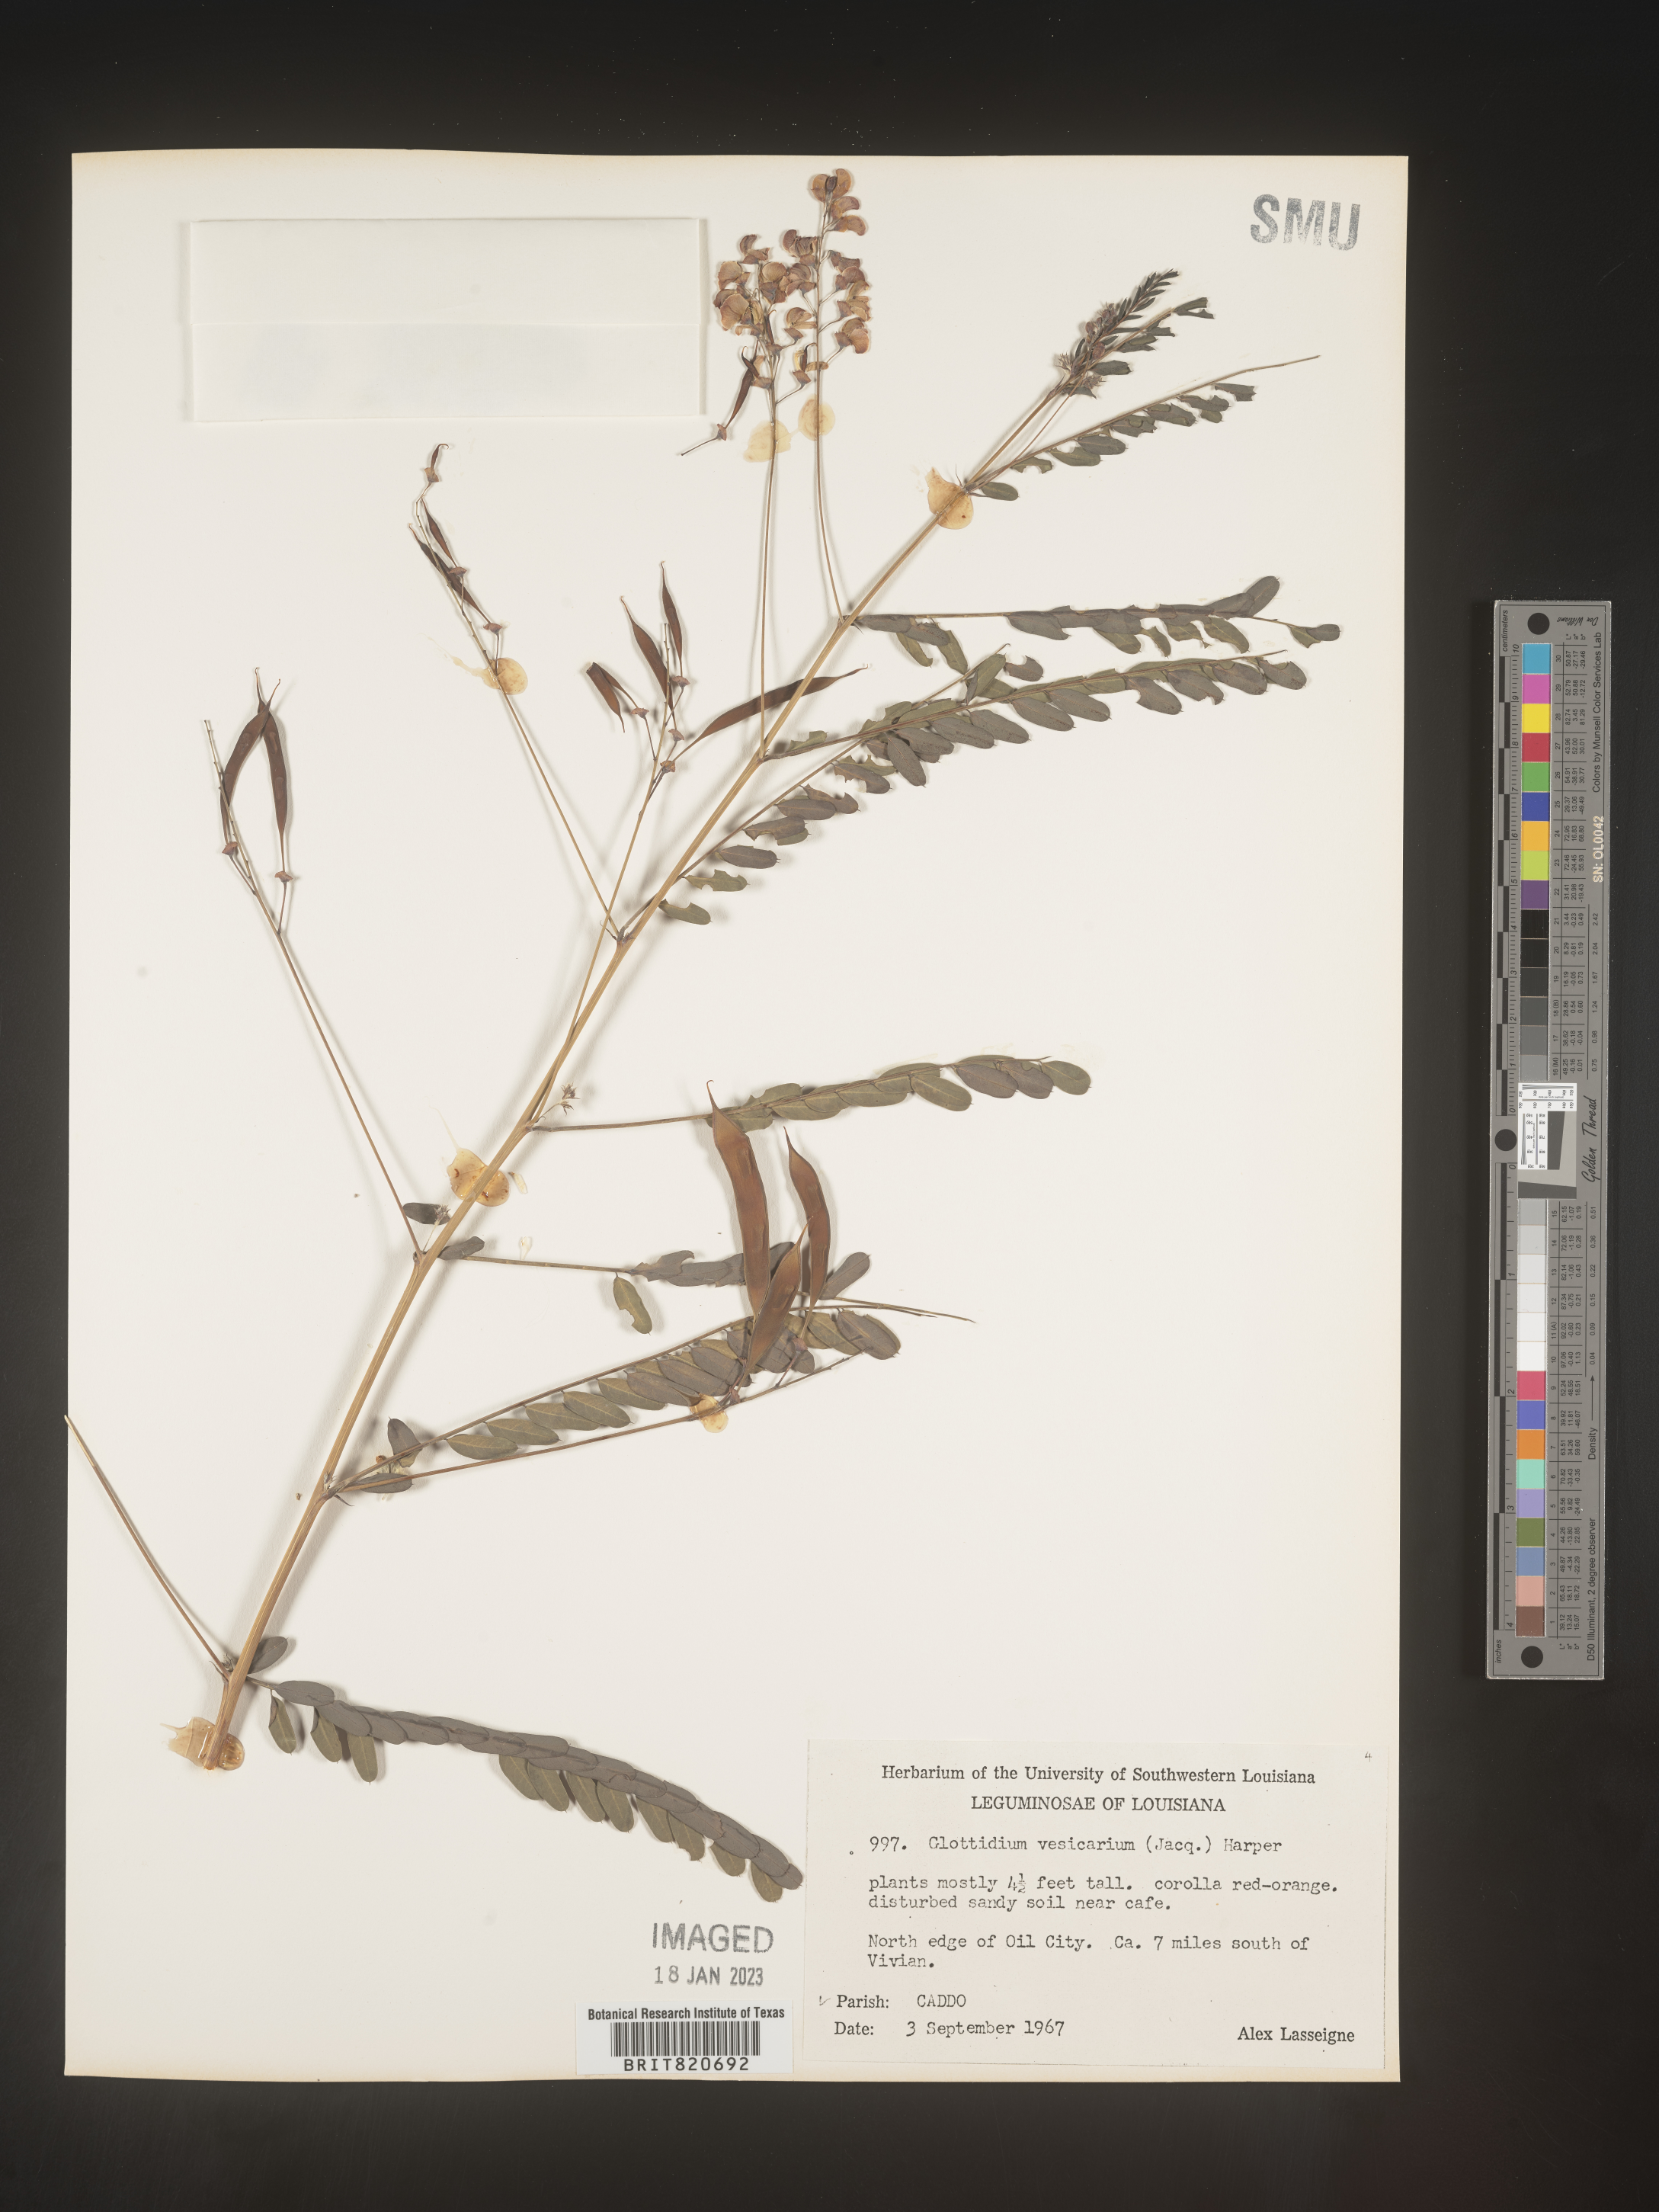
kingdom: Plantae
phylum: Tracheophyta
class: Magnoliopsida
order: Fabales
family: Fabaceae
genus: Sesbania
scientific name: Sesbania vesicaria
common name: Bagpod
